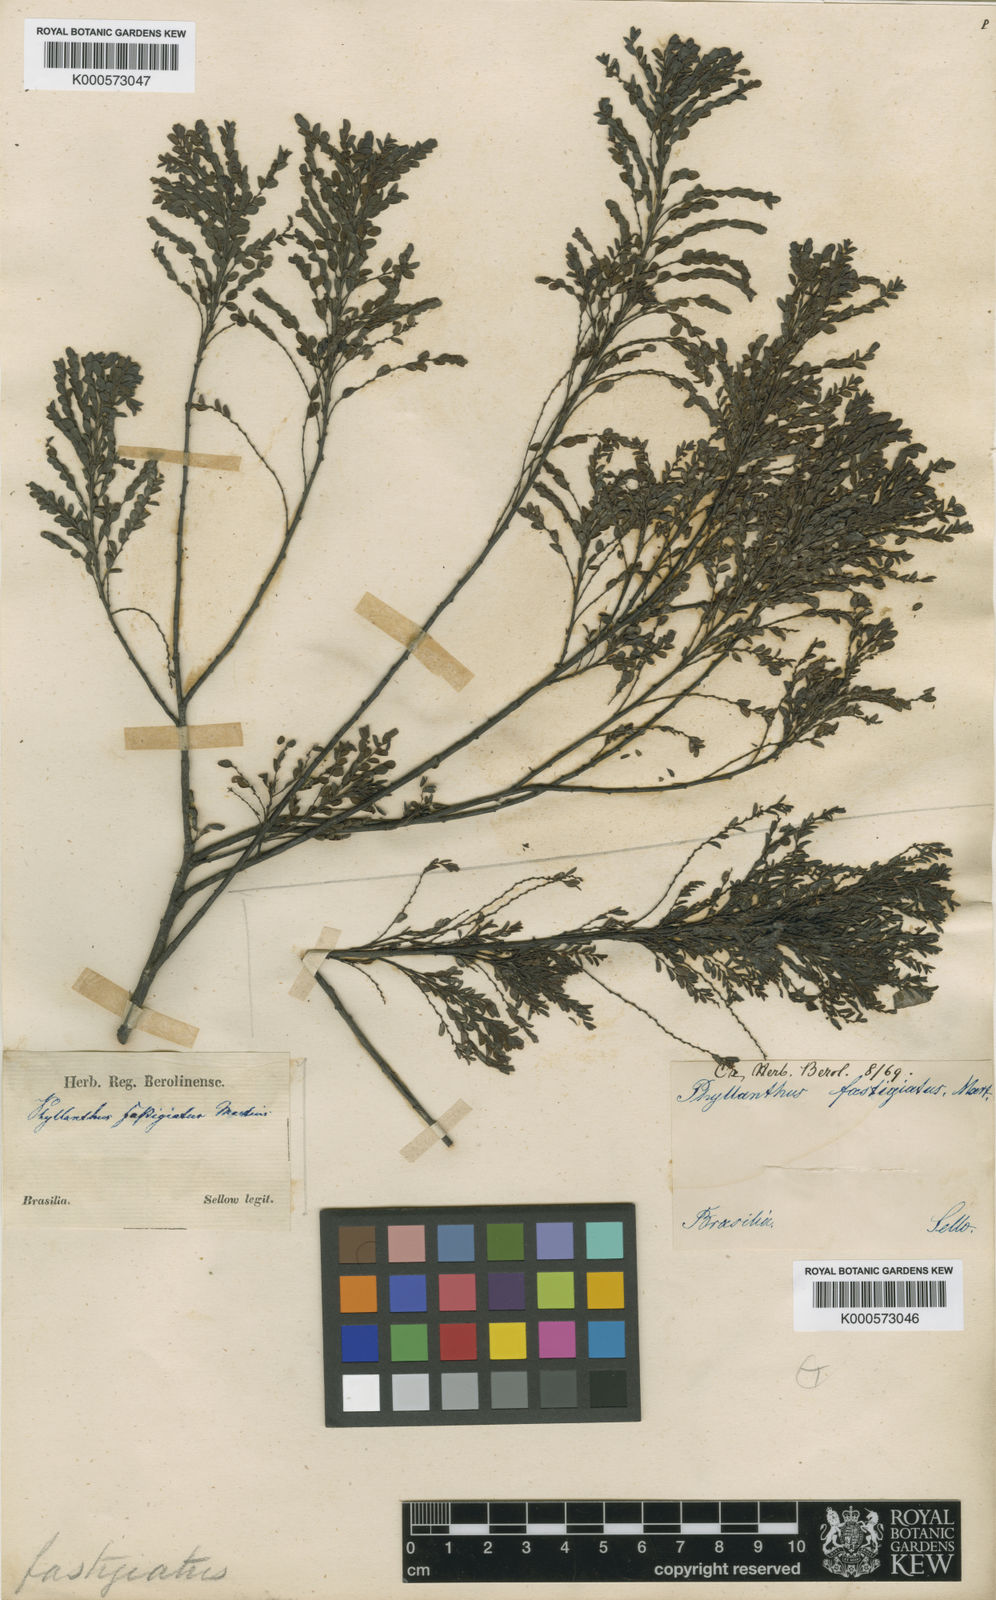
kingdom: Plantae
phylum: Tracheophyta
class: Magnoliopsida
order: Malpighiales
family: Phyllanthaceae
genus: Phyllanthus
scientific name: Phyllanthus
